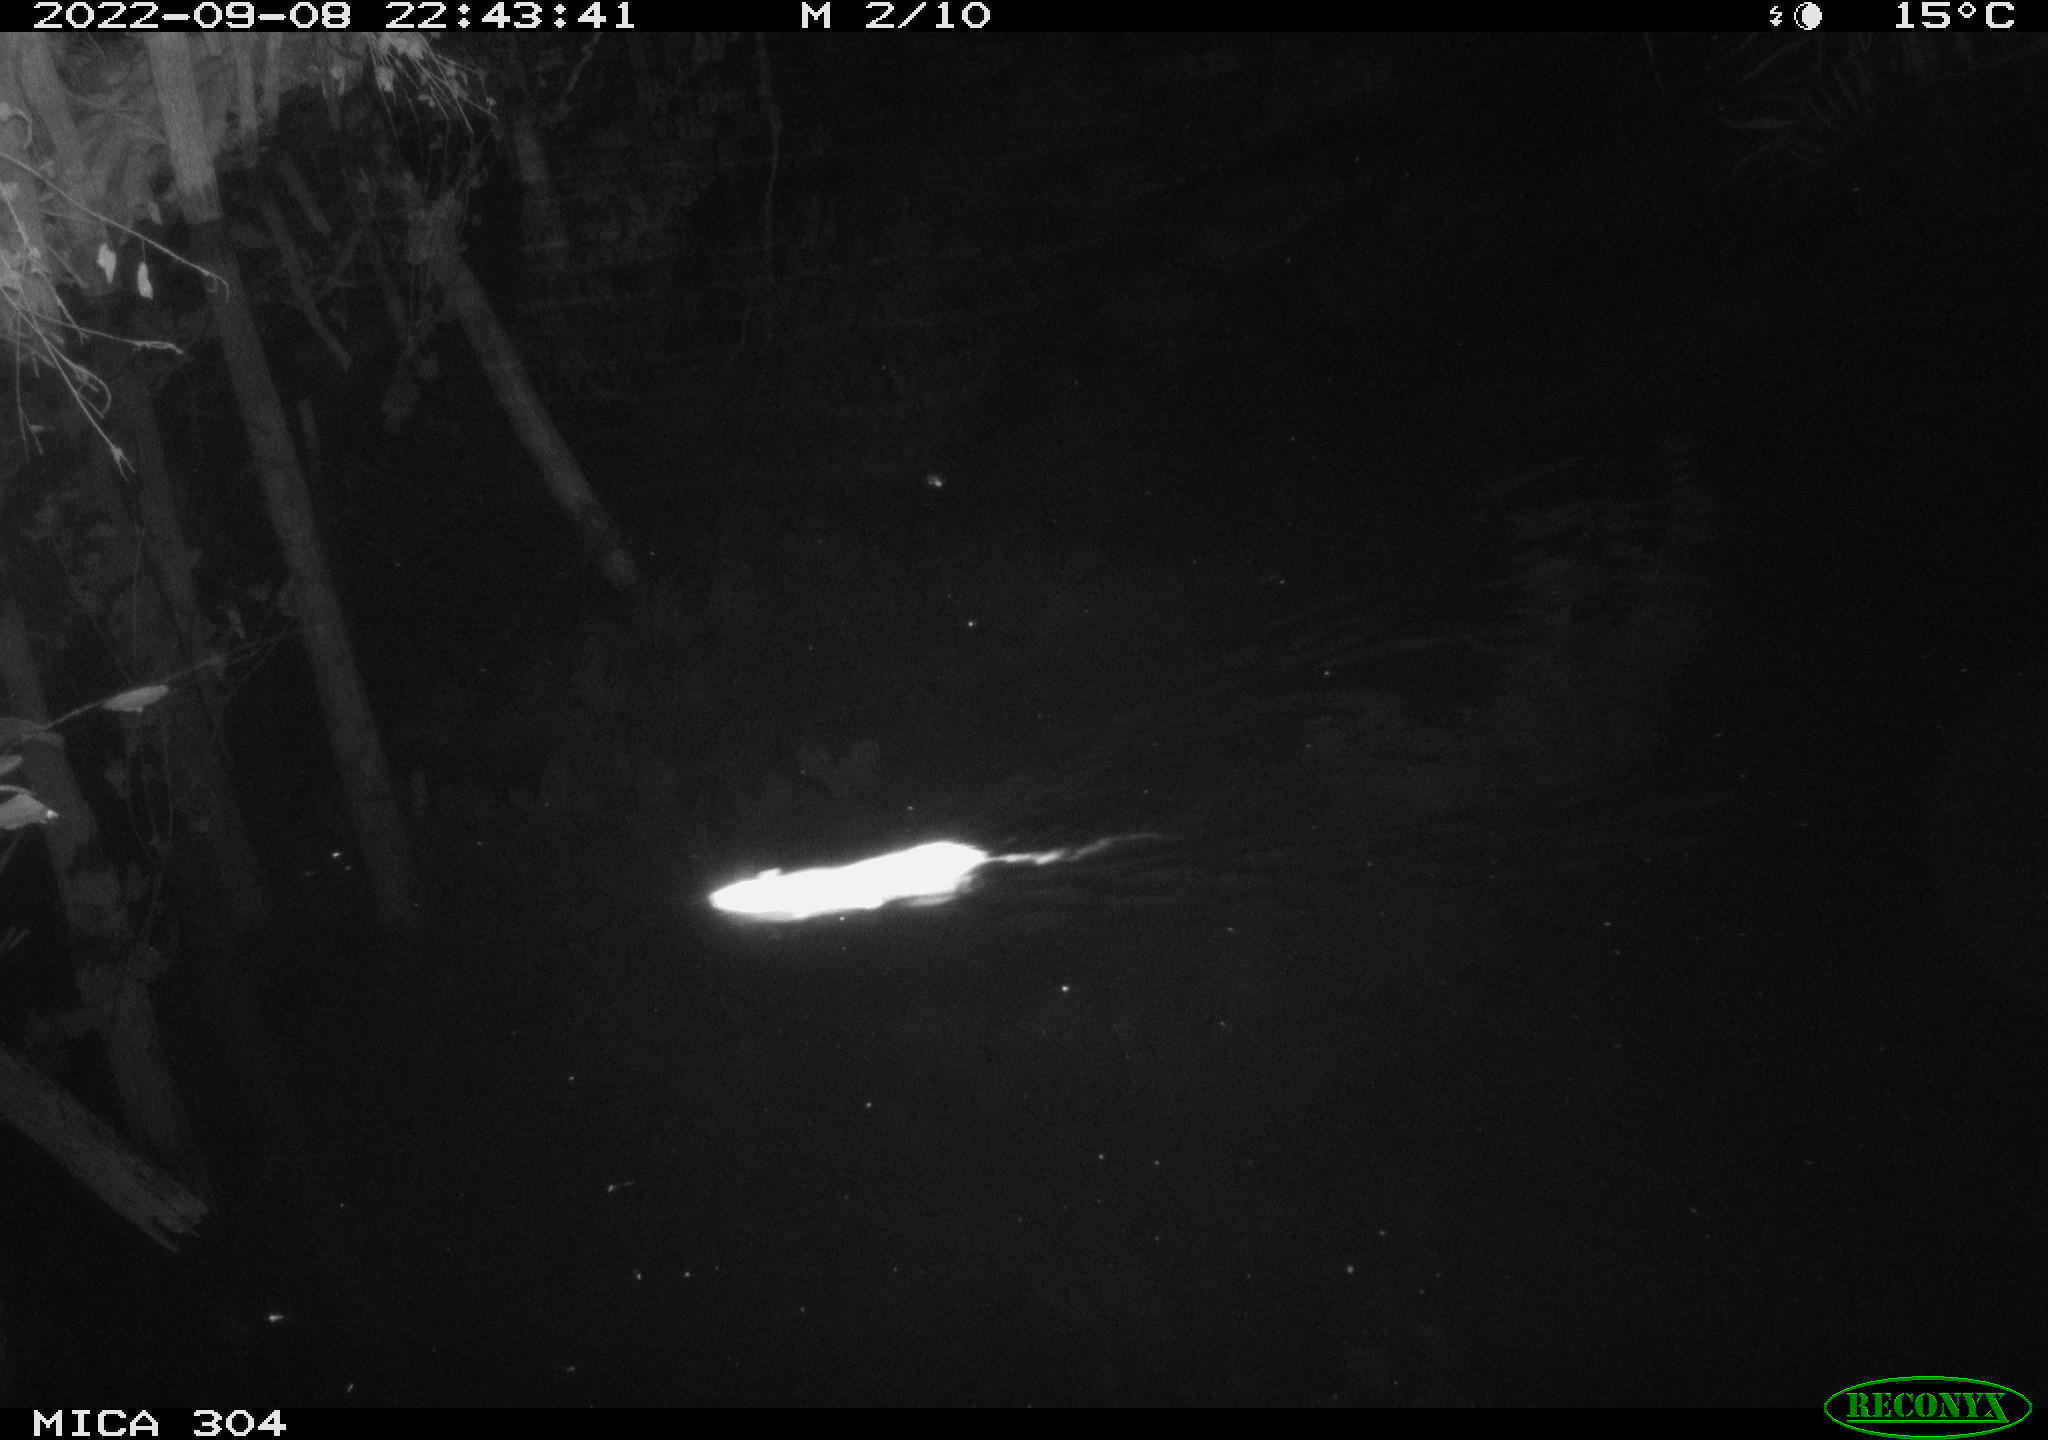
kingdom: Animalia
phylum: Chordata
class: Mammalia
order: Rodentia
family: Muridae
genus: Rattus
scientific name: Rattus norvegicus
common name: Brown rat
